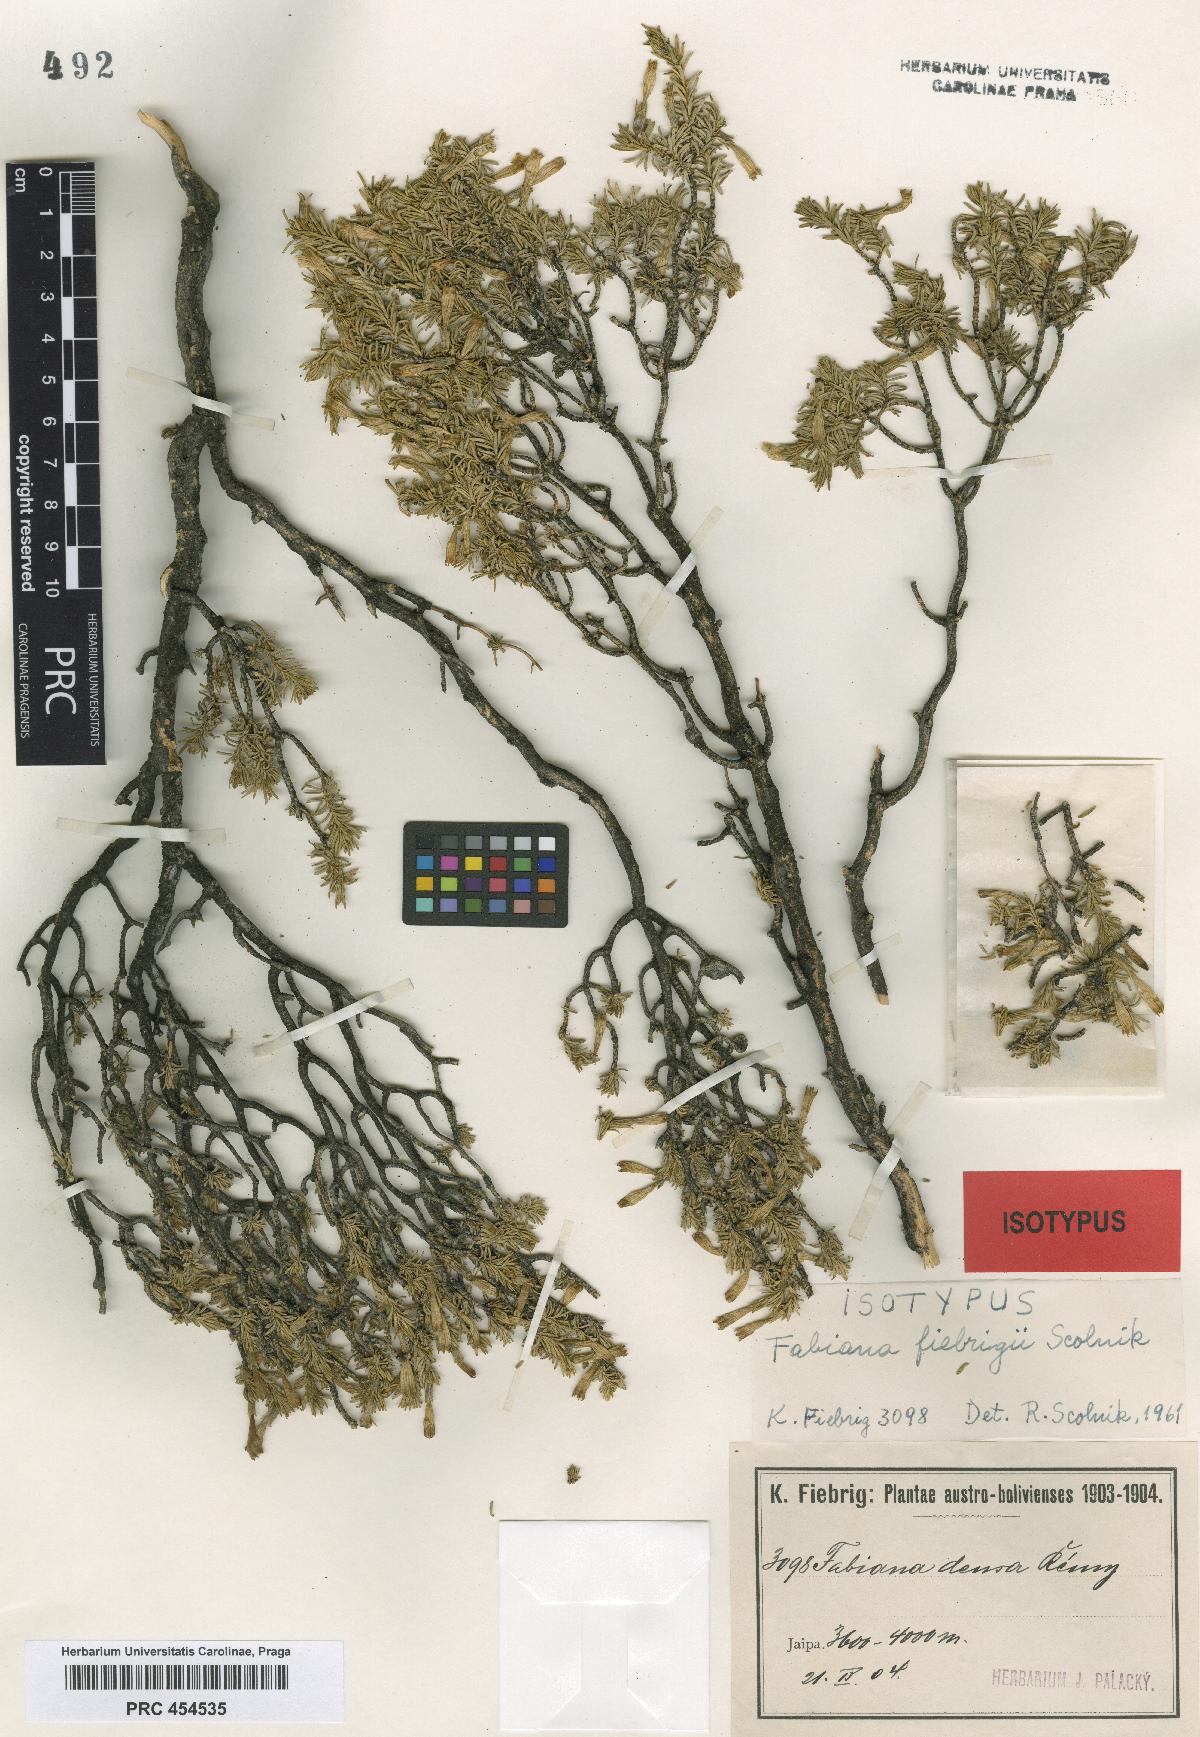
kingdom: Plantae
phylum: Tracheophyta
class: Magnoliopsida
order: Solanales
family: Solanaceae
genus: Fabiana
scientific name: Fabiana fiebrigii
